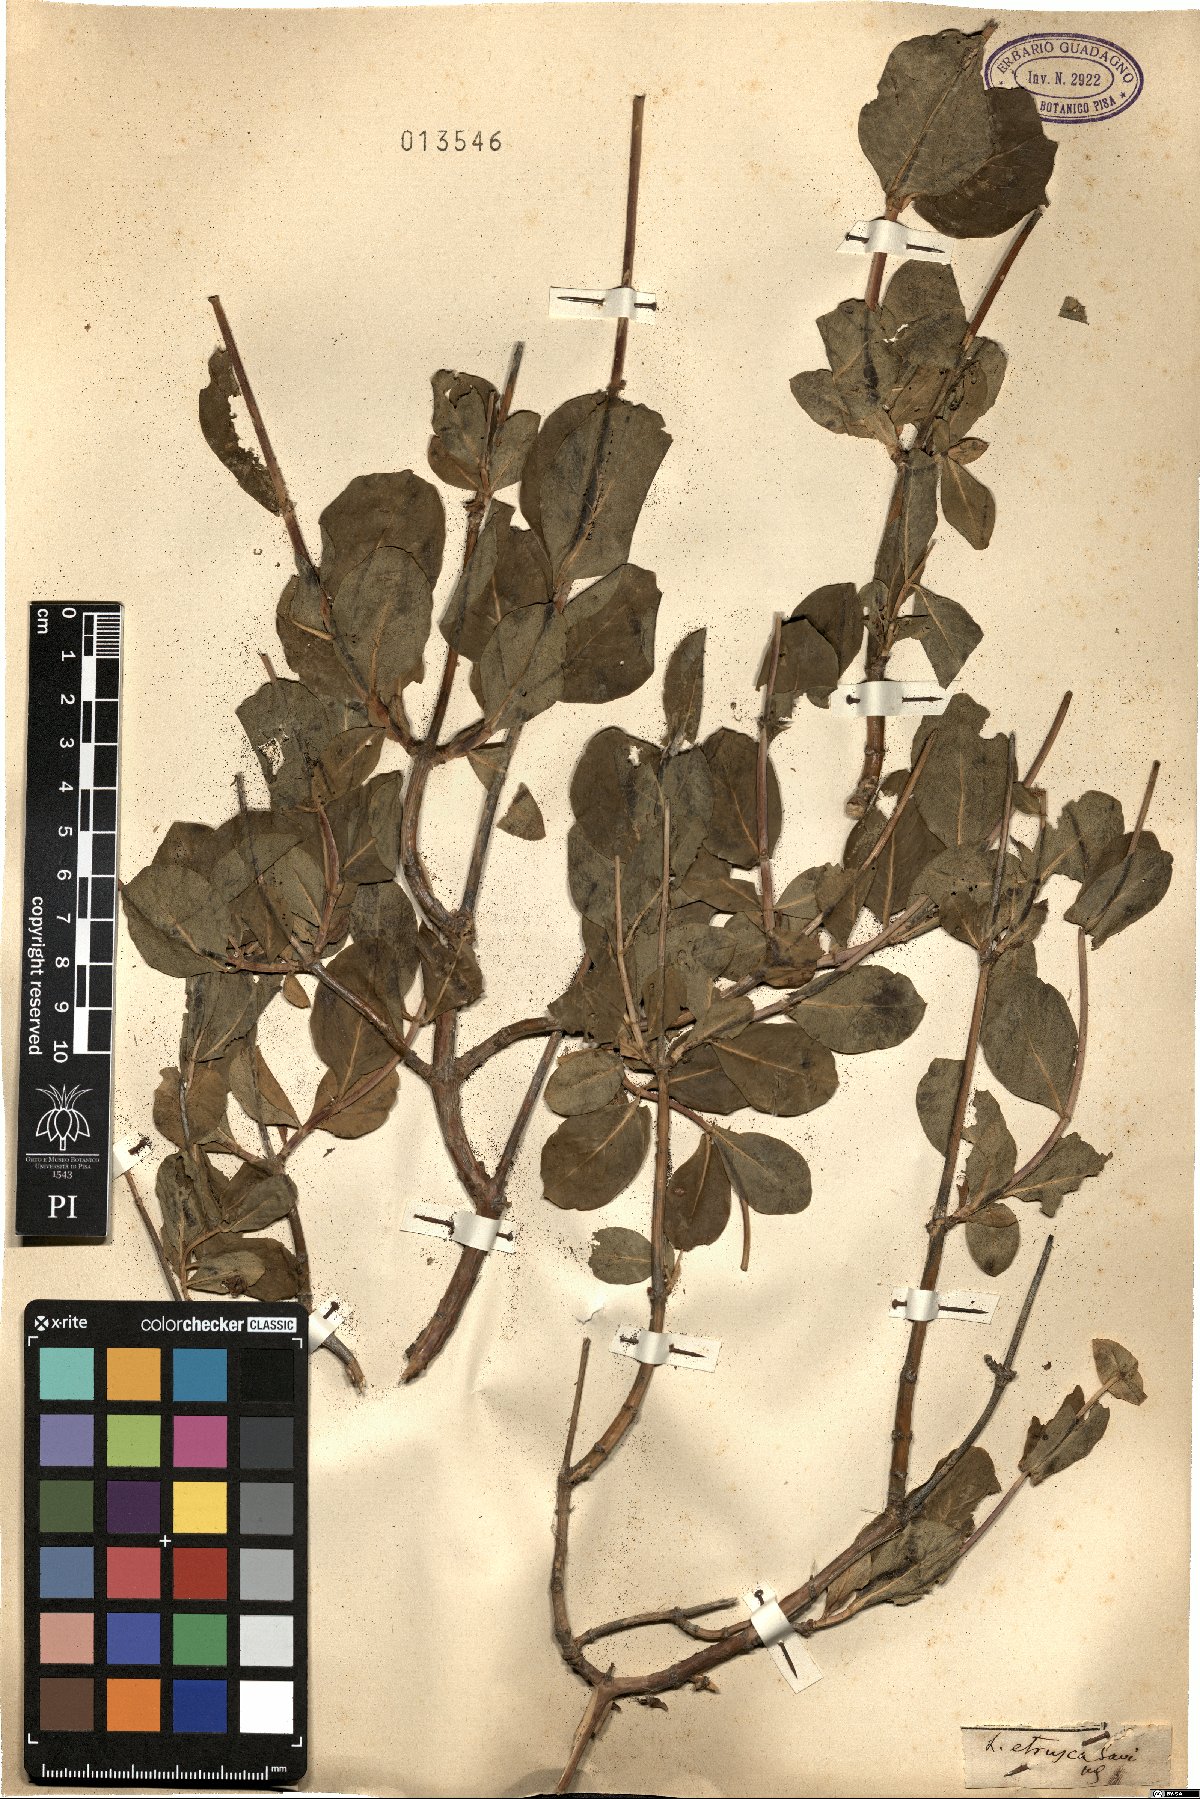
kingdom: Plantae
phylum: Tracheophyta
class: Magnoliopsida
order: Dipsacales
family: Caprifoliaceae
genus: Lonicera
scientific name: Lonicera etrusca
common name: Etruscan honeysuckle
